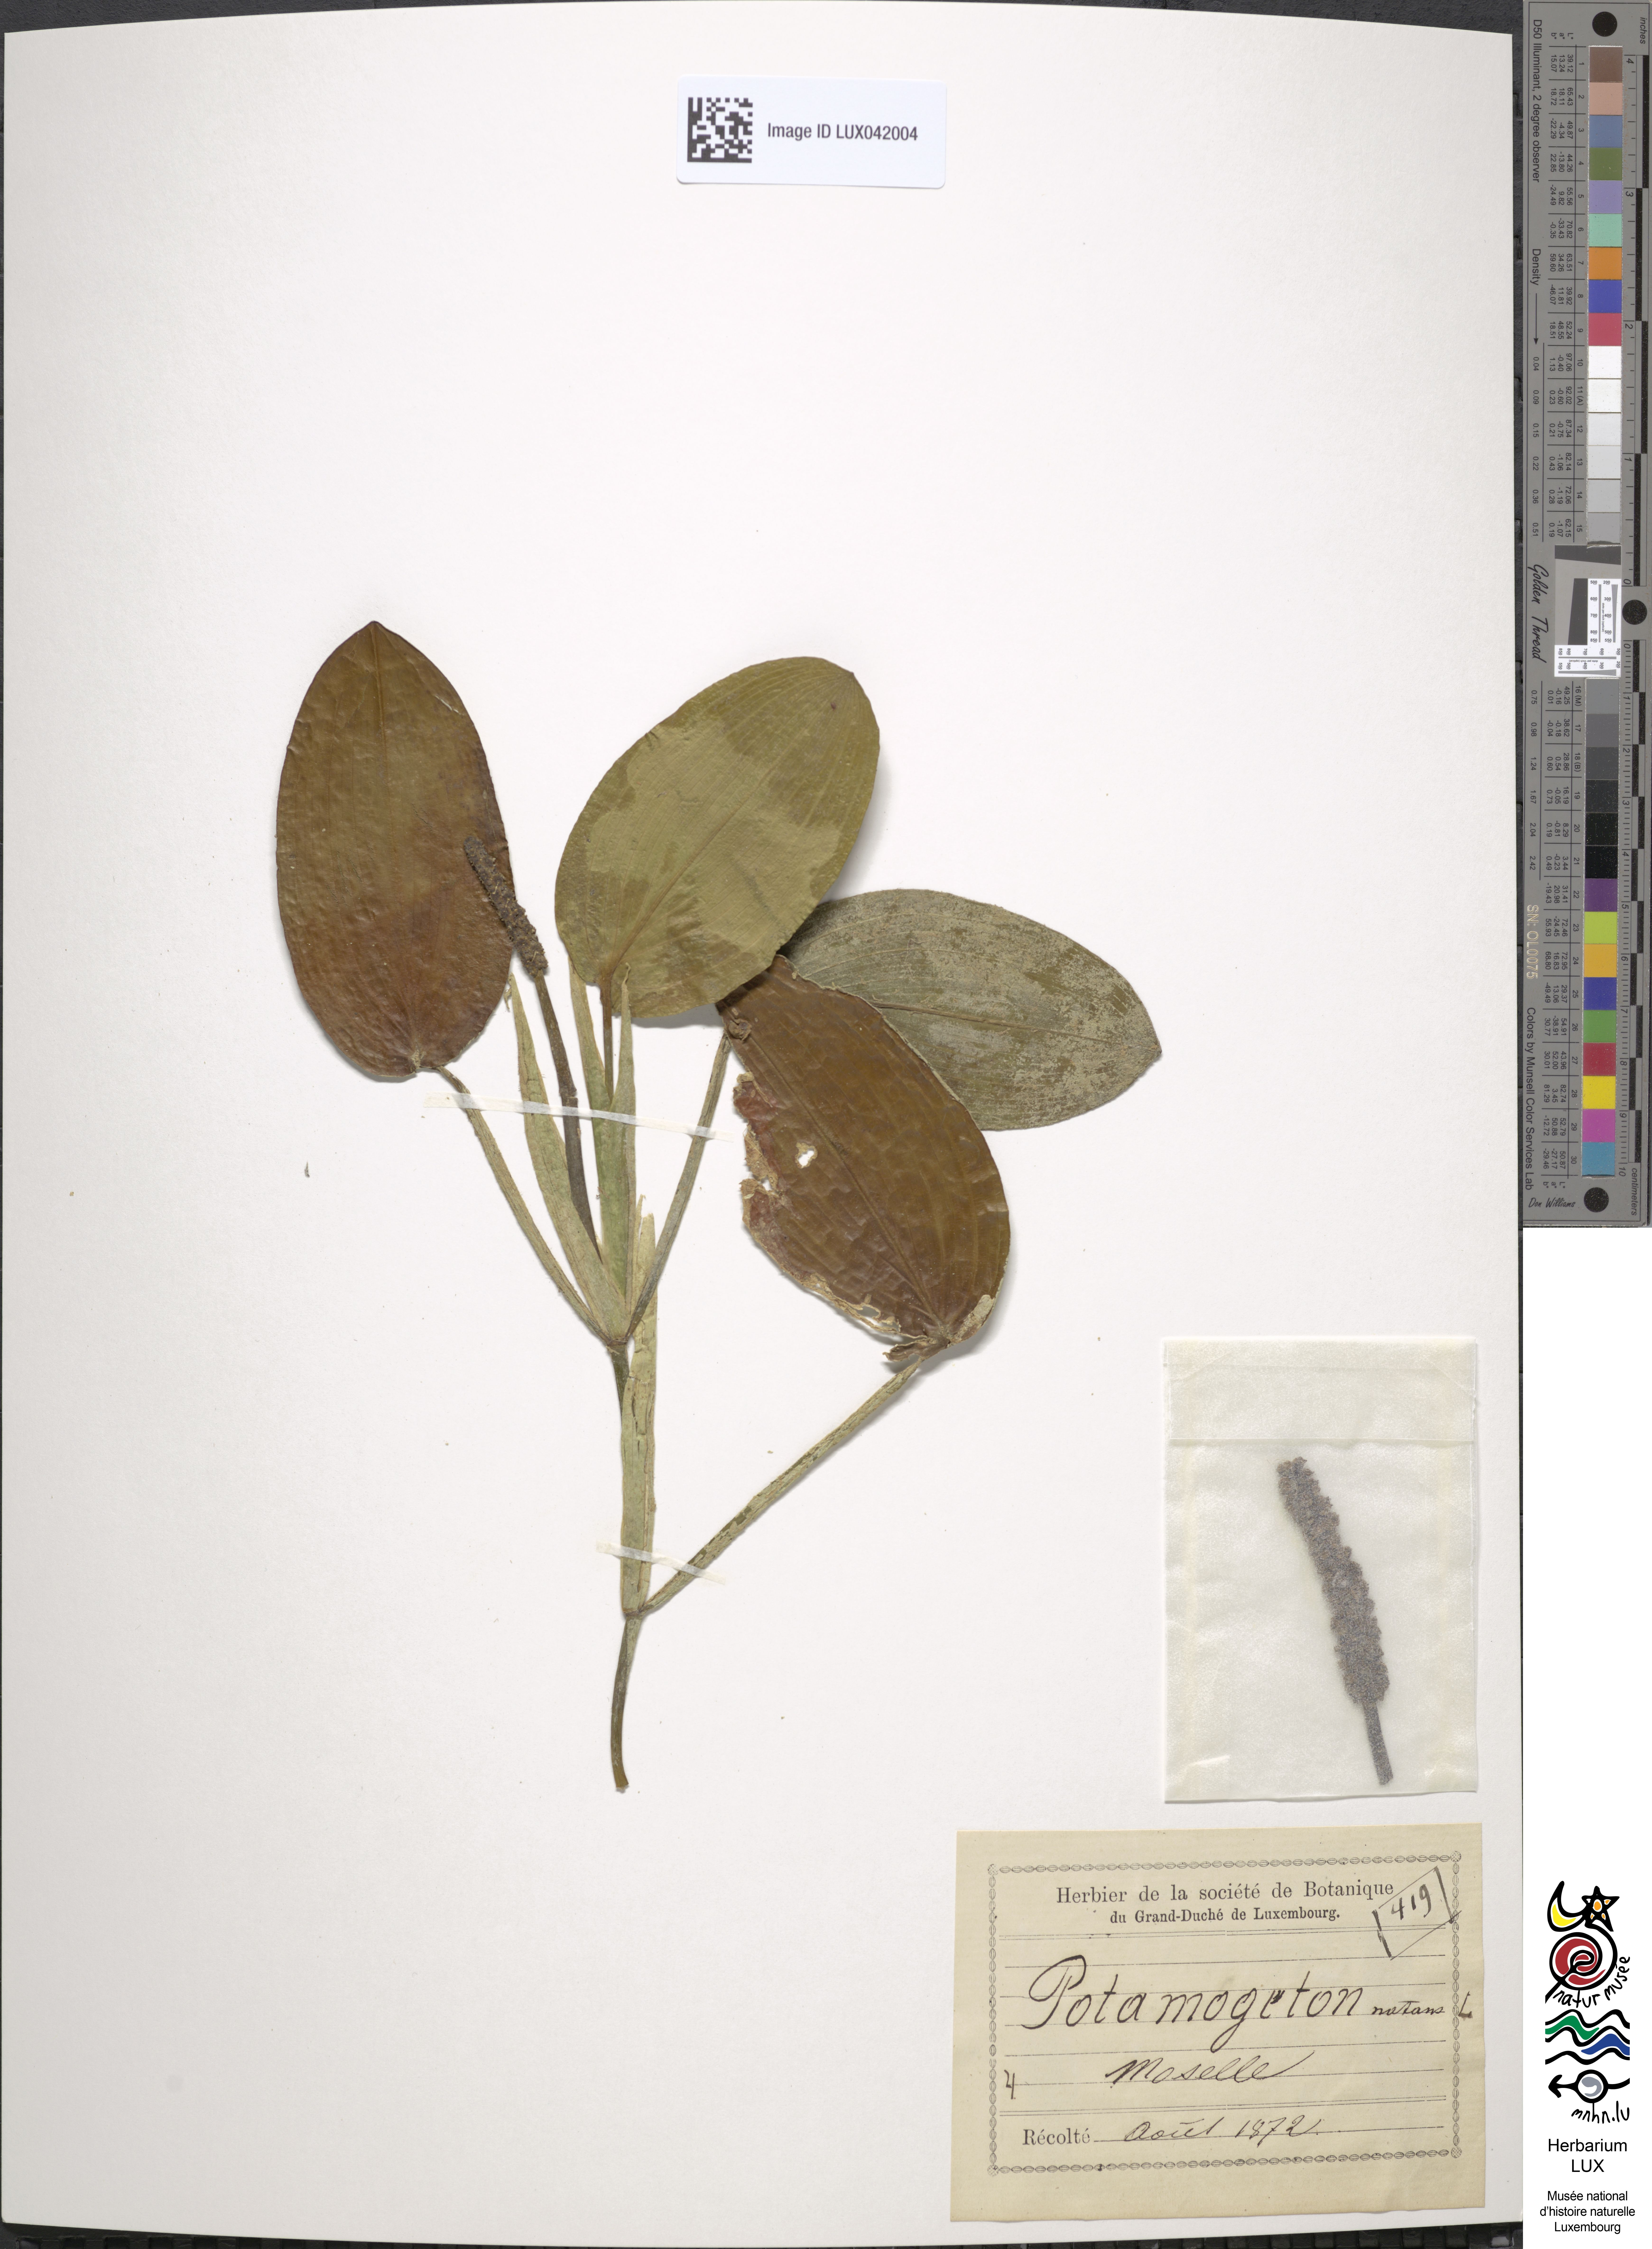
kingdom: Plantae
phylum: Tracheophyta
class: Liliopsida
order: Alismatales
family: Potamogetonaceae
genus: Potamogeton
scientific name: Potamogeton natans
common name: Broad-leaved pondweed
